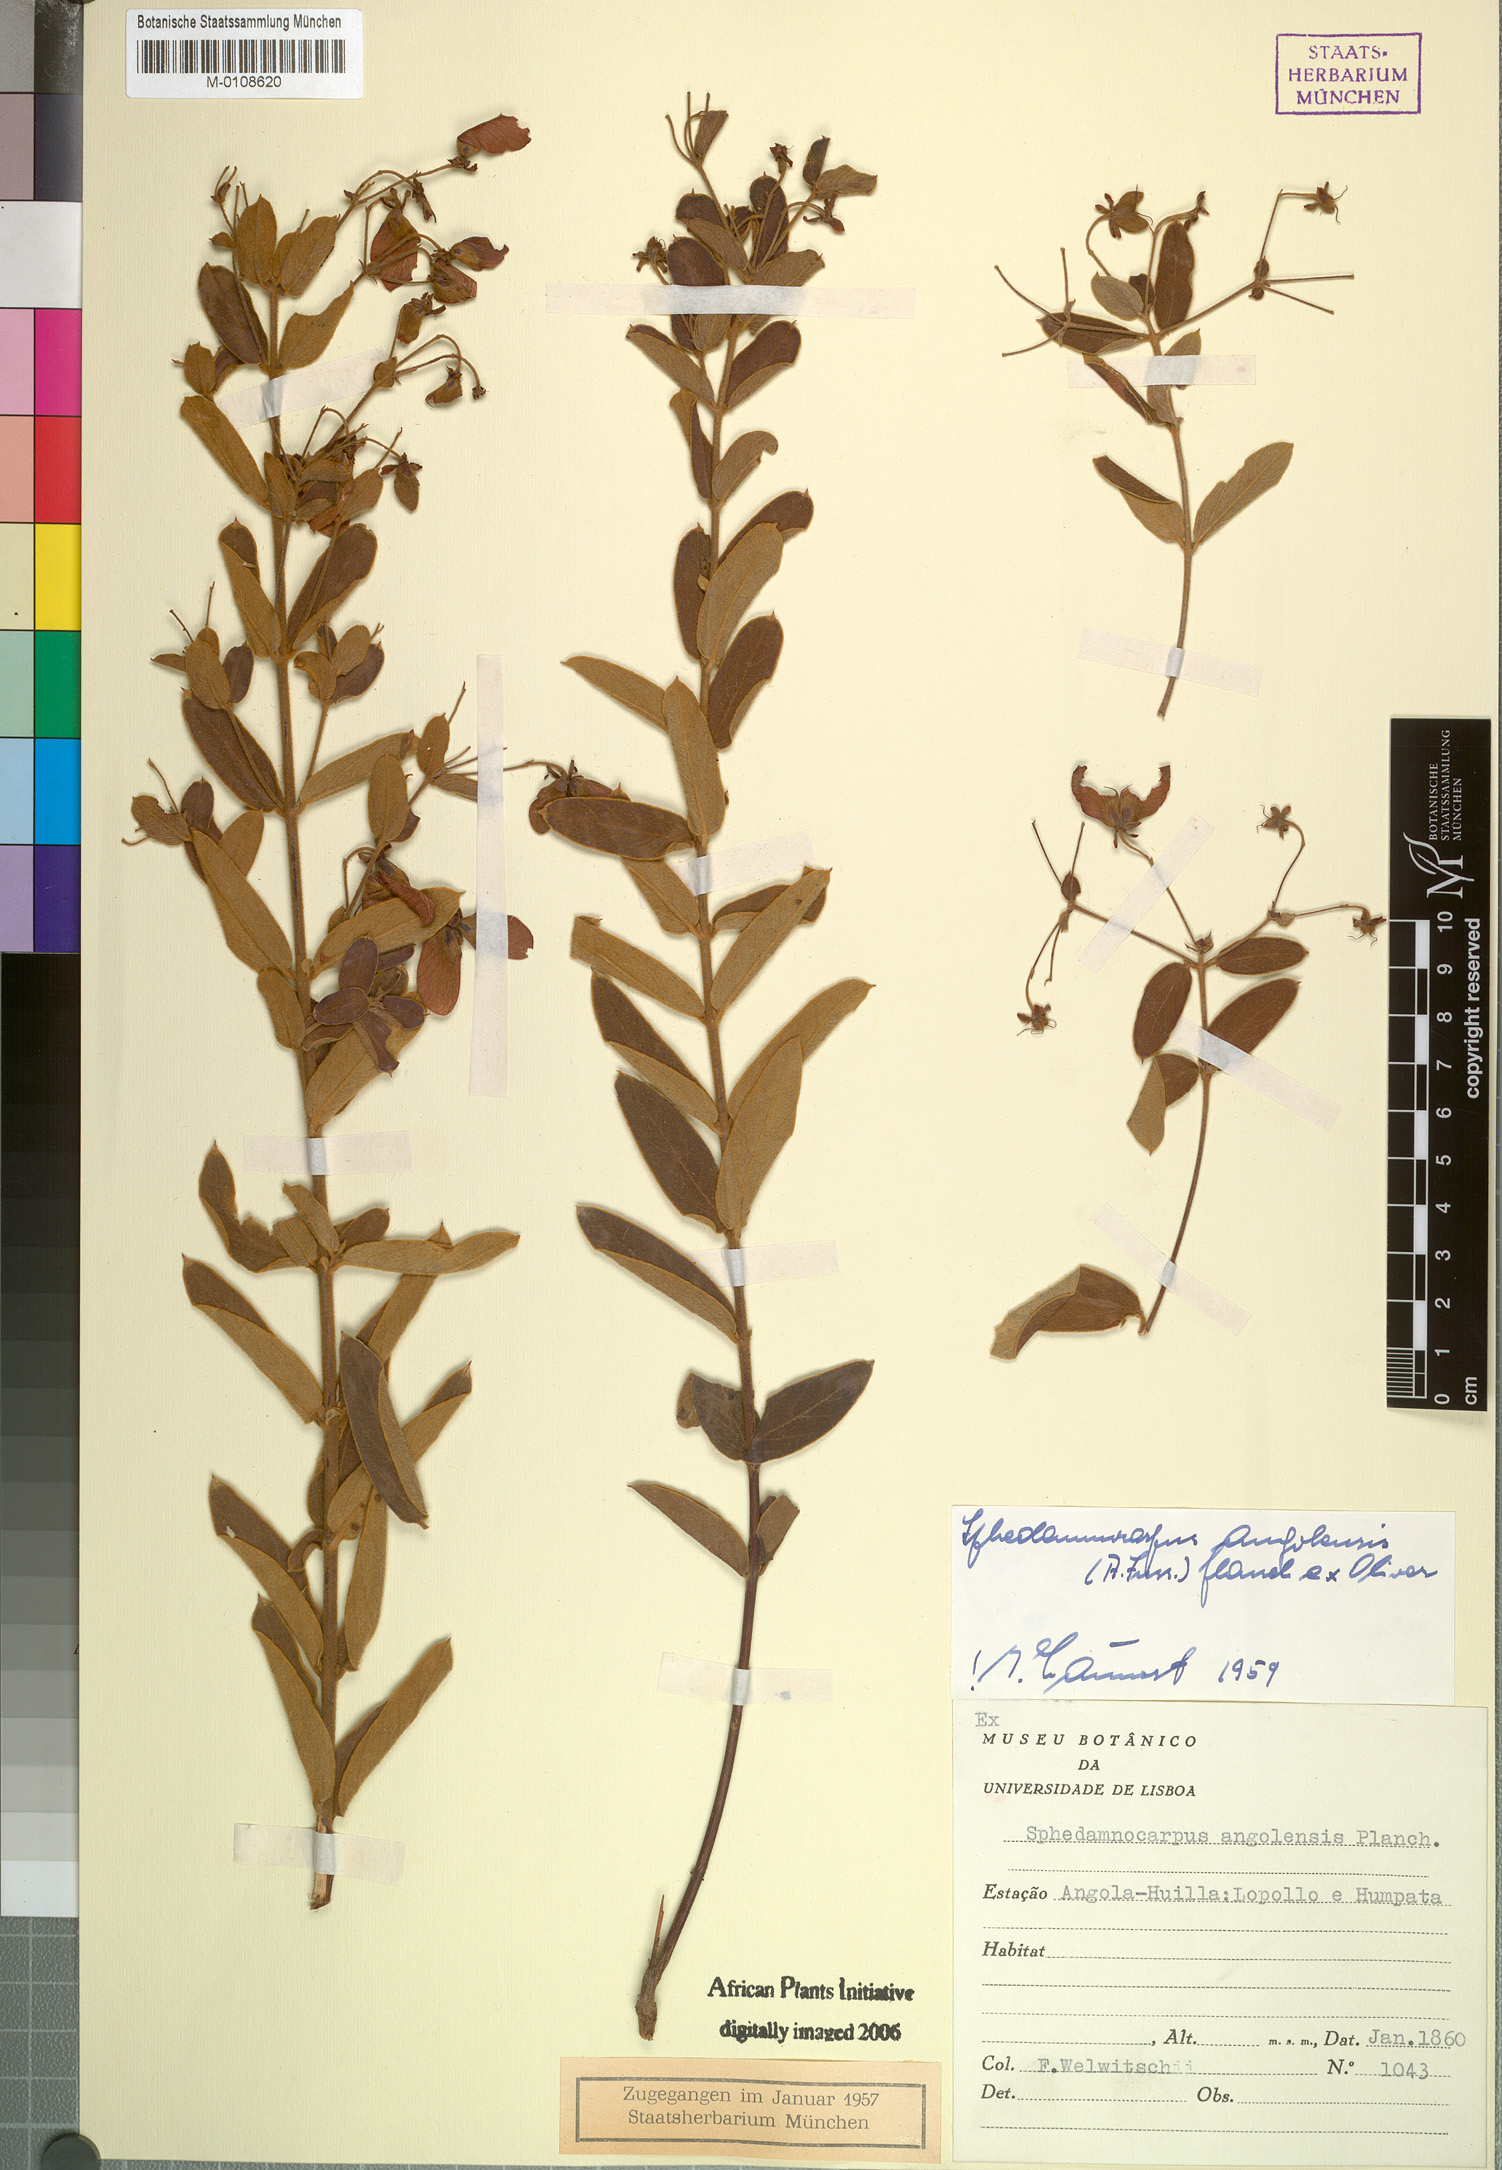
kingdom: Plantae
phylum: Tracheophyta
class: Magnoliopsida
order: Malpighiales
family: Malpighiaceae
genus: Sphedamnocarpus
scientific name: Sphedamnocarpus pruriens
